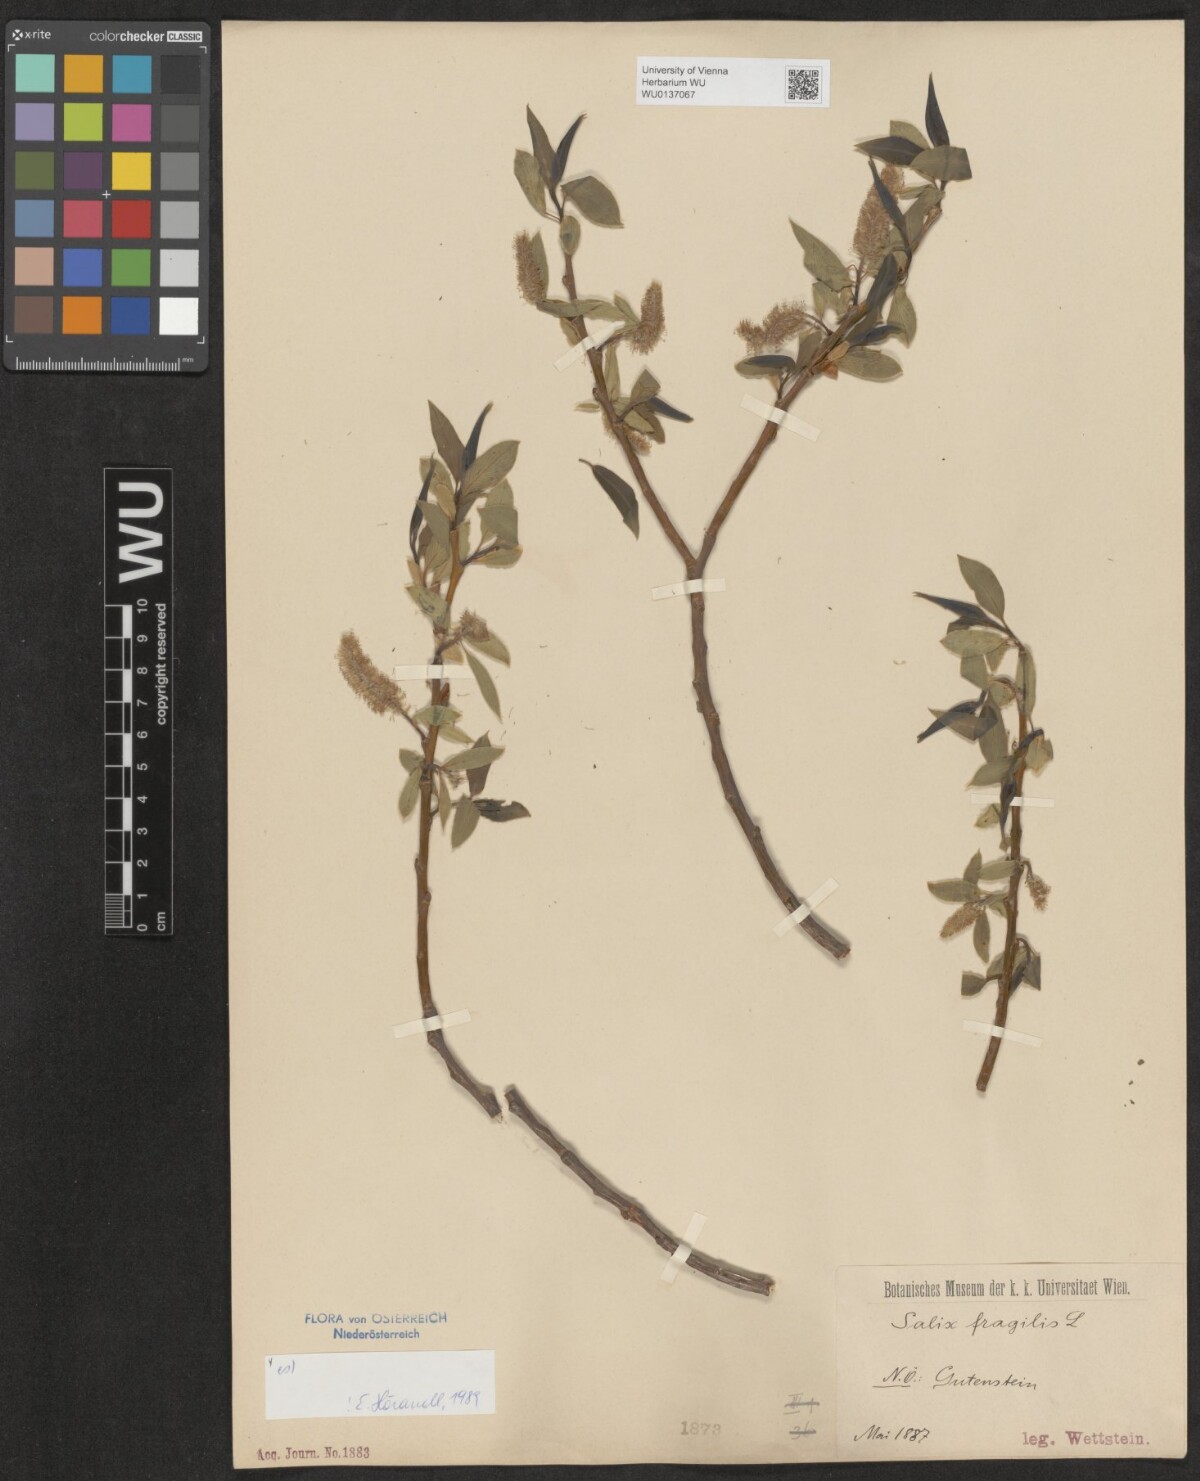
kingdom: Plantae
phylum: Tracheophyta
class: Magnoliopsida
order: Malpighiales
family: Salicaceae
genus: Salix
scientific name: Salix fragilis
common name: Crack willow
